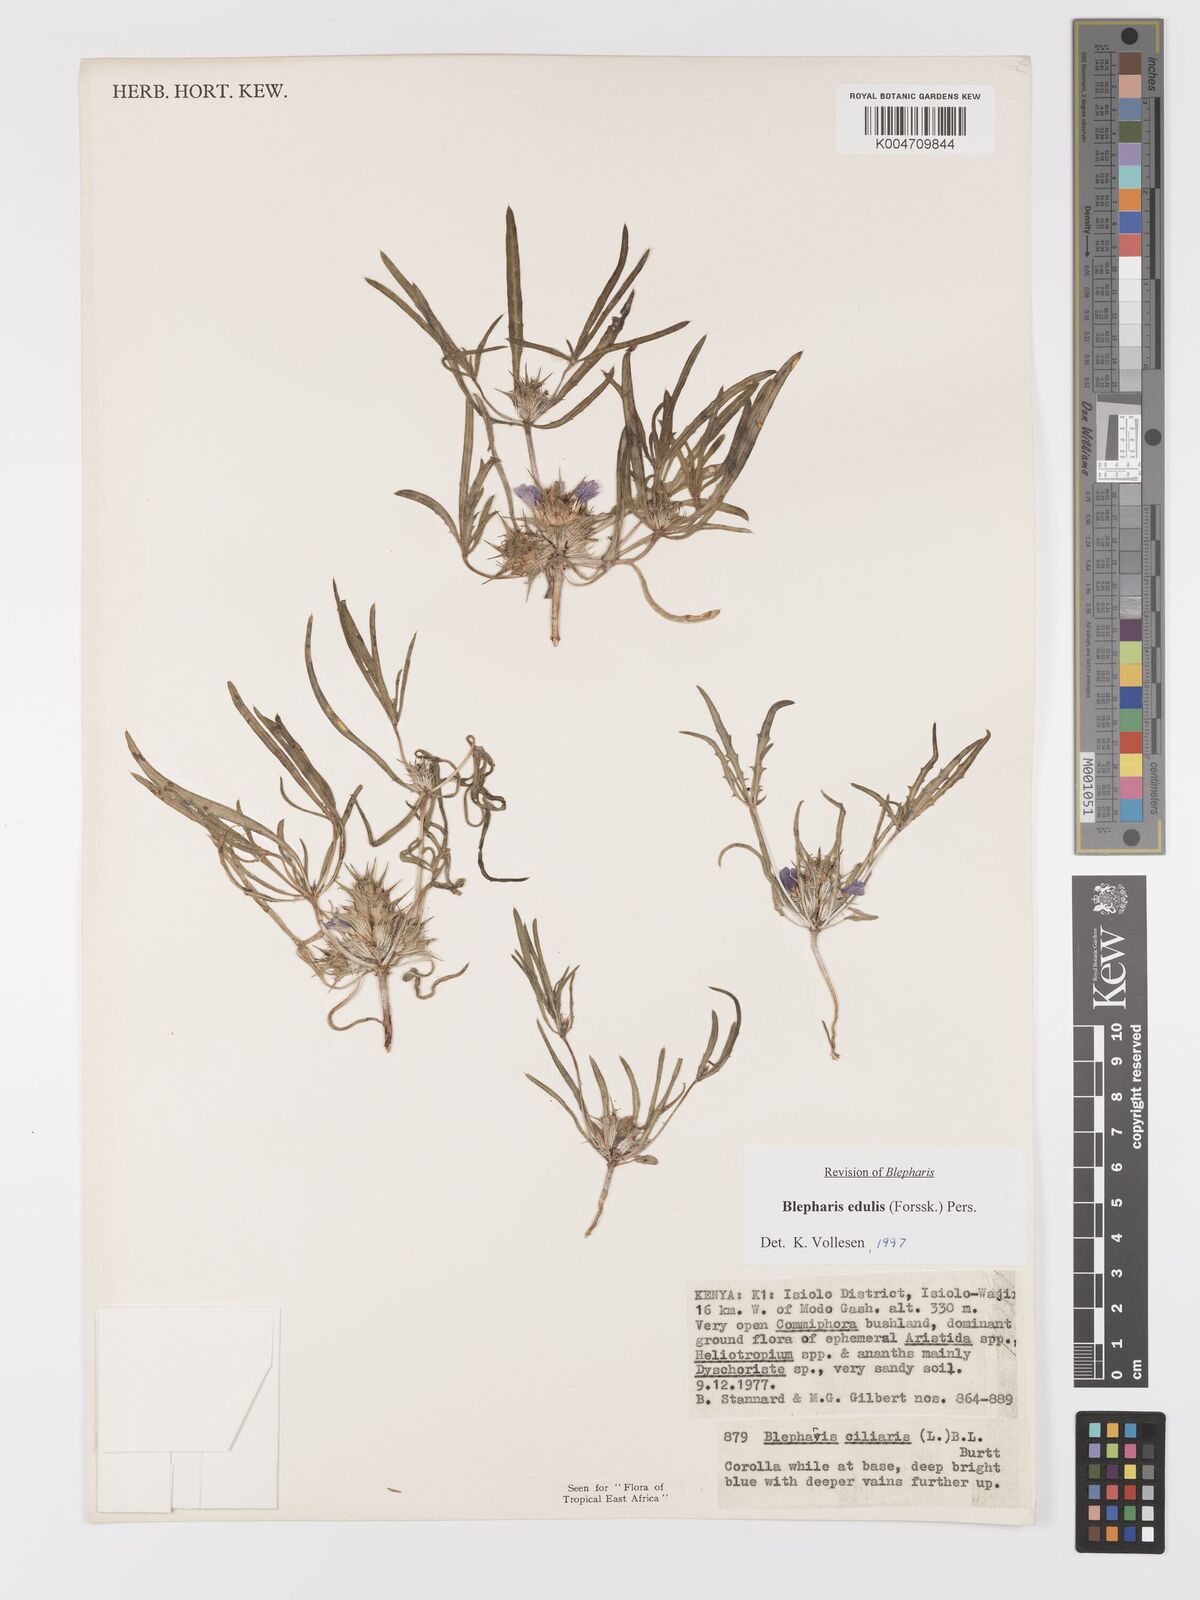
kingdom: Plantae
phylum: Tracheophyta
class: Magnoliopsida
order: Lamiales
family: Acanthaceae
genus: Blepharis
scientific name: Blepharis edulis
